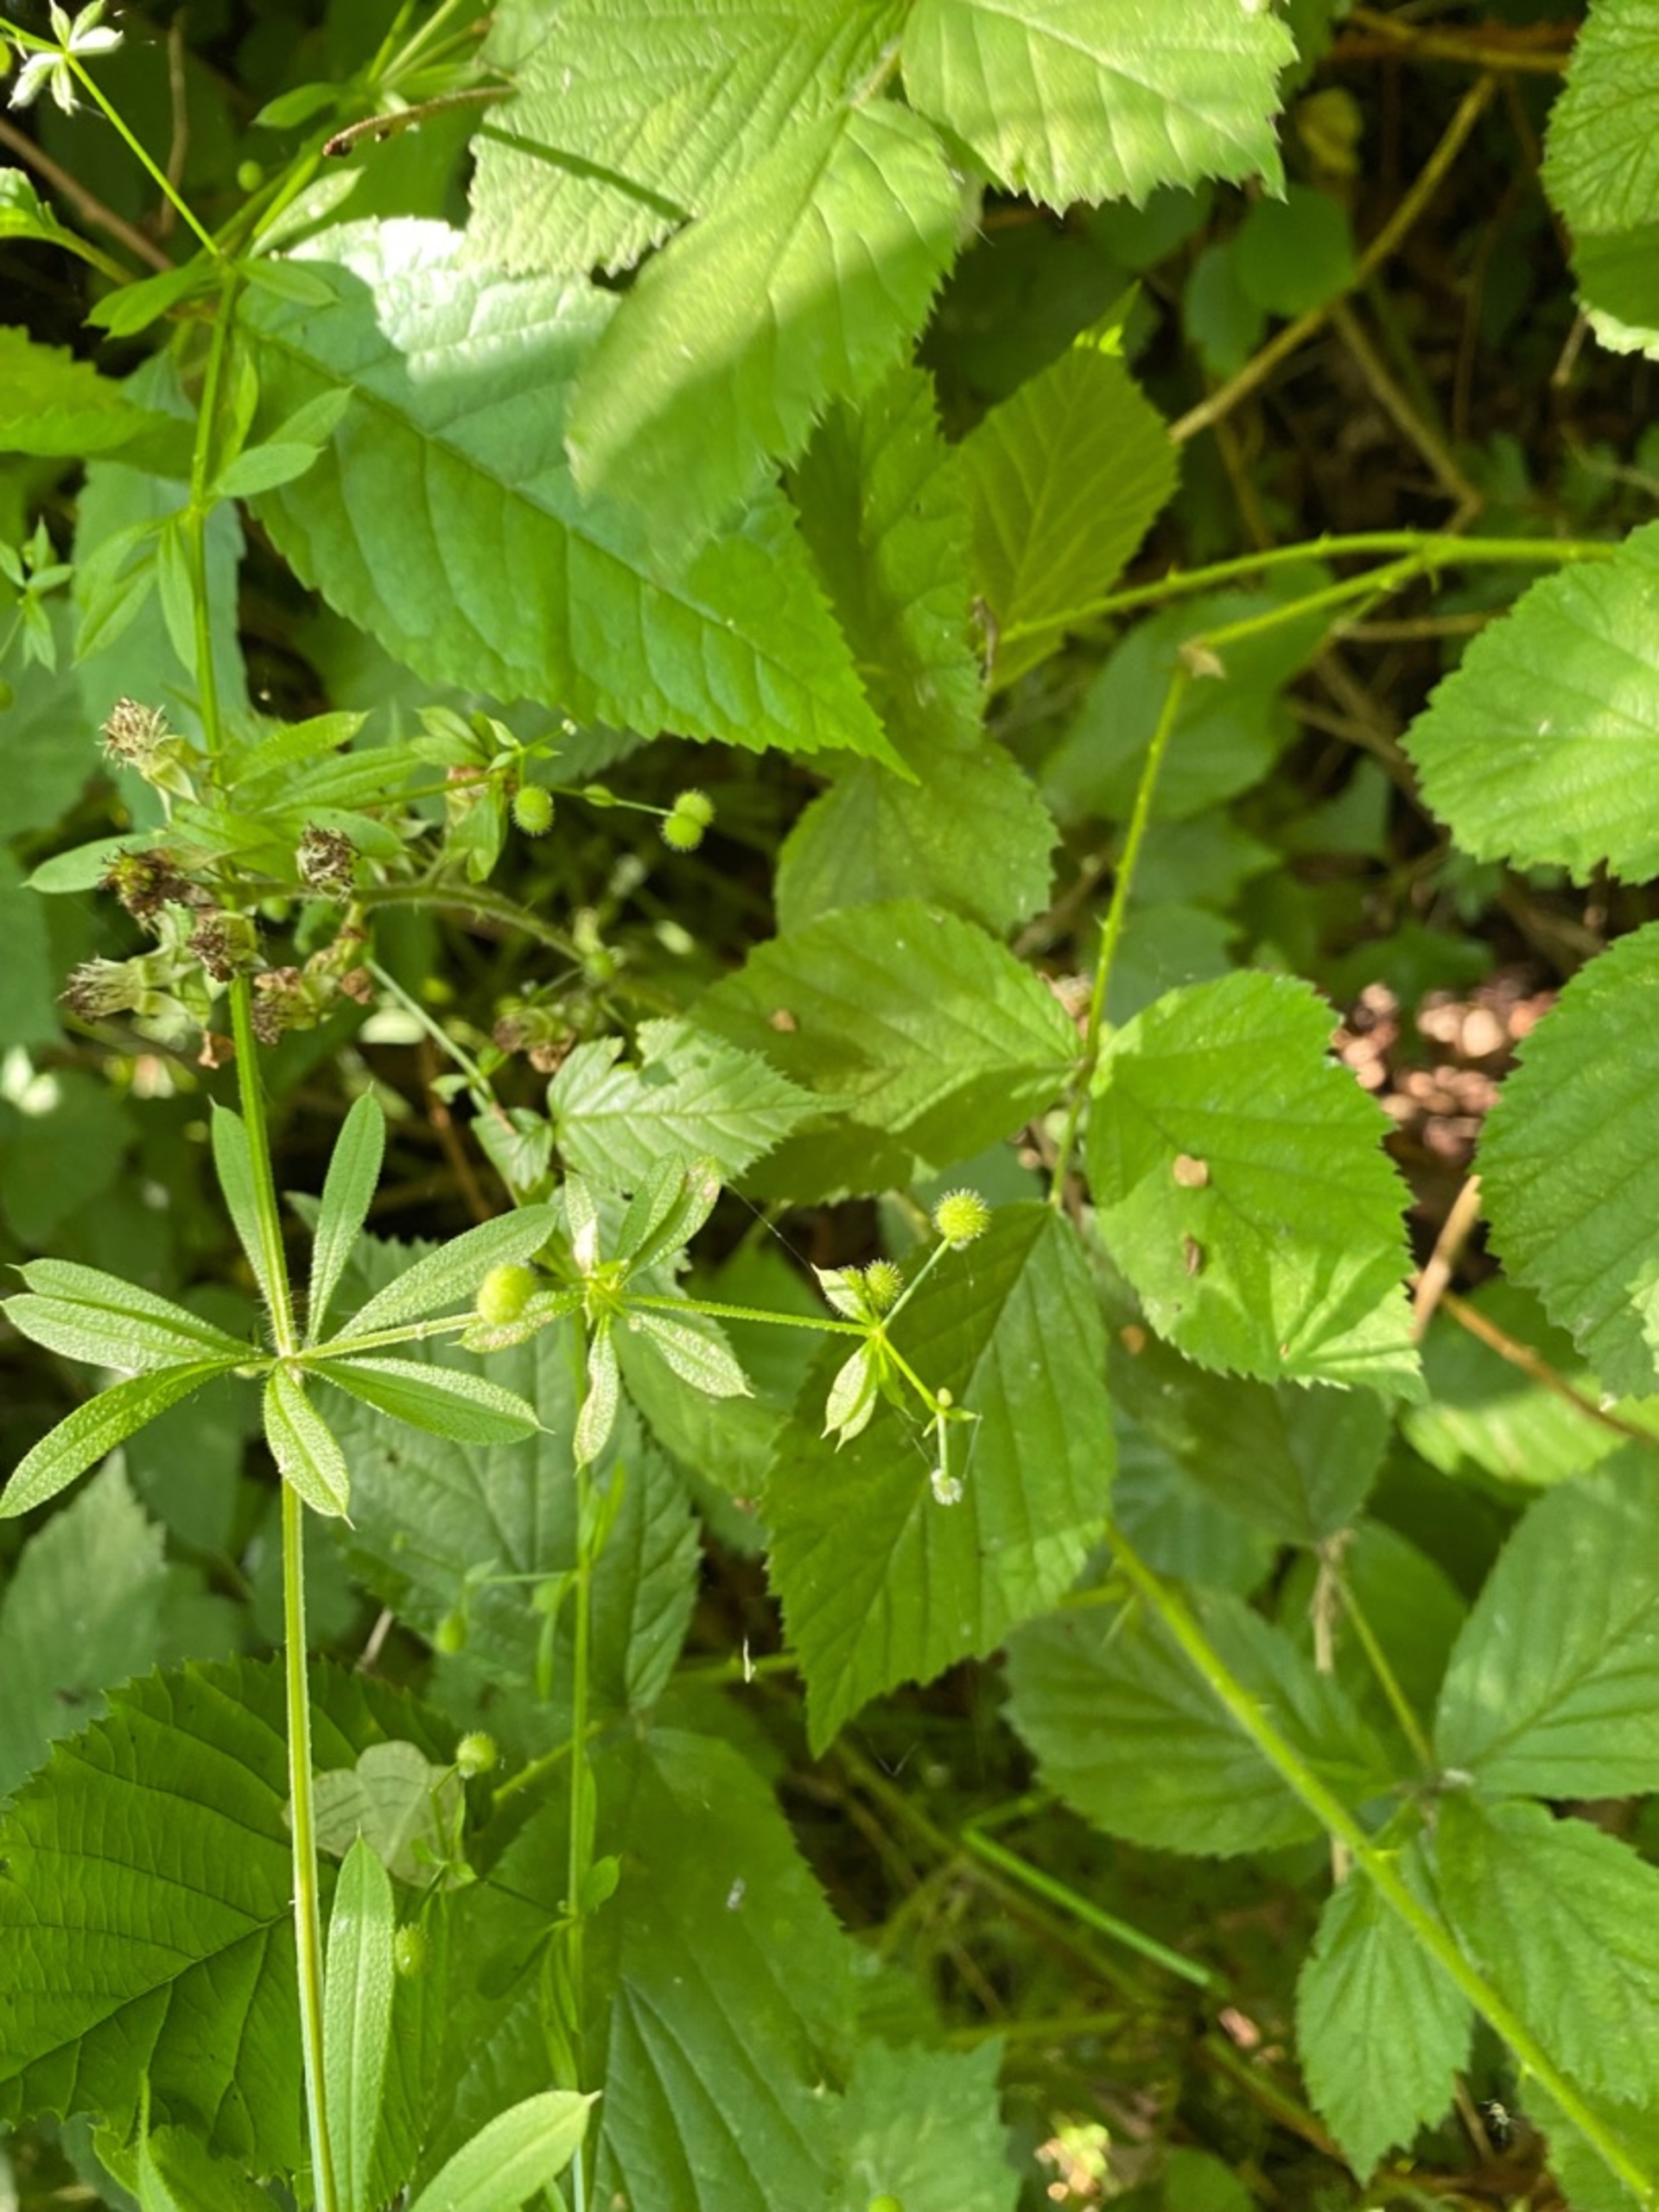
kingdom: Plantae
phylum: Tracheophyta
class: Magnoliopsida
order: Gentianales
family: Rubiaceae
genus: Galium
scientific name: Galium aparine
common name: Burre-snerre
